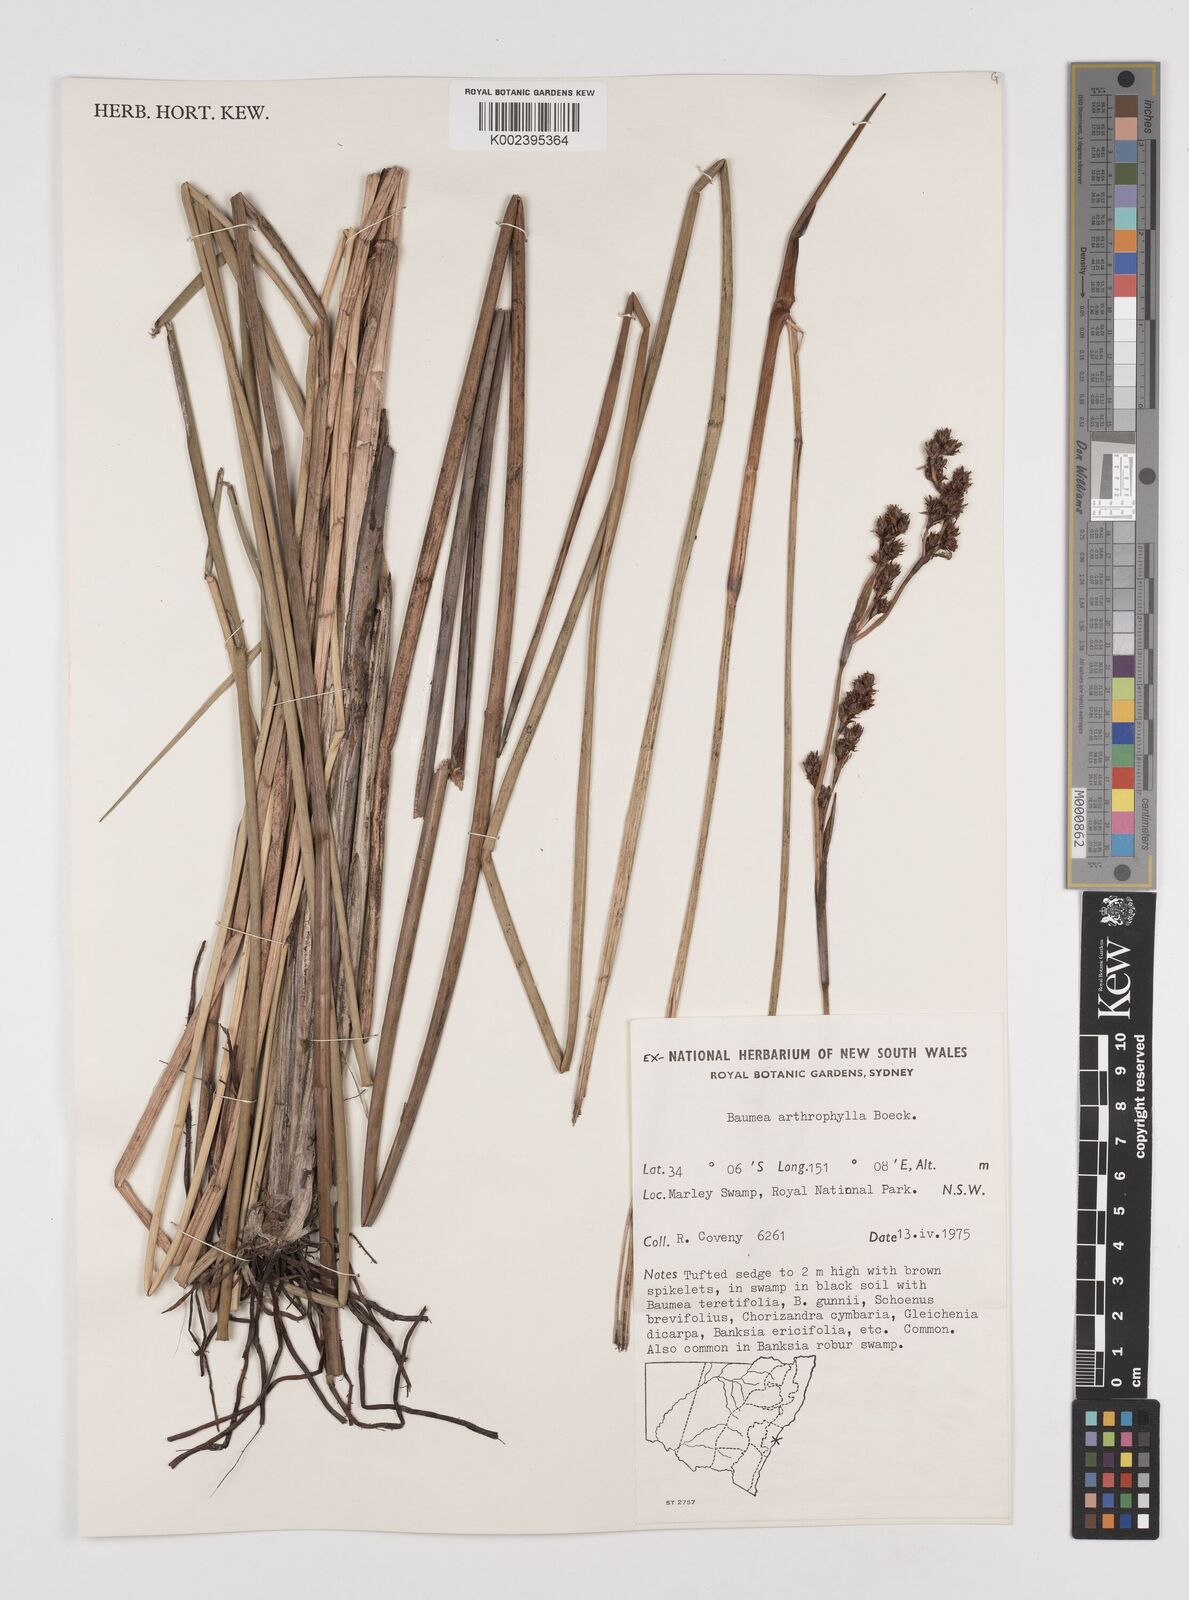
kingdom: Plantae
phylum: Tracheophyta
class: Liliopsida
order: Poales
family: Cyperaceae
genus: Machaerina
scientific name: Machaerina arthrophylla
